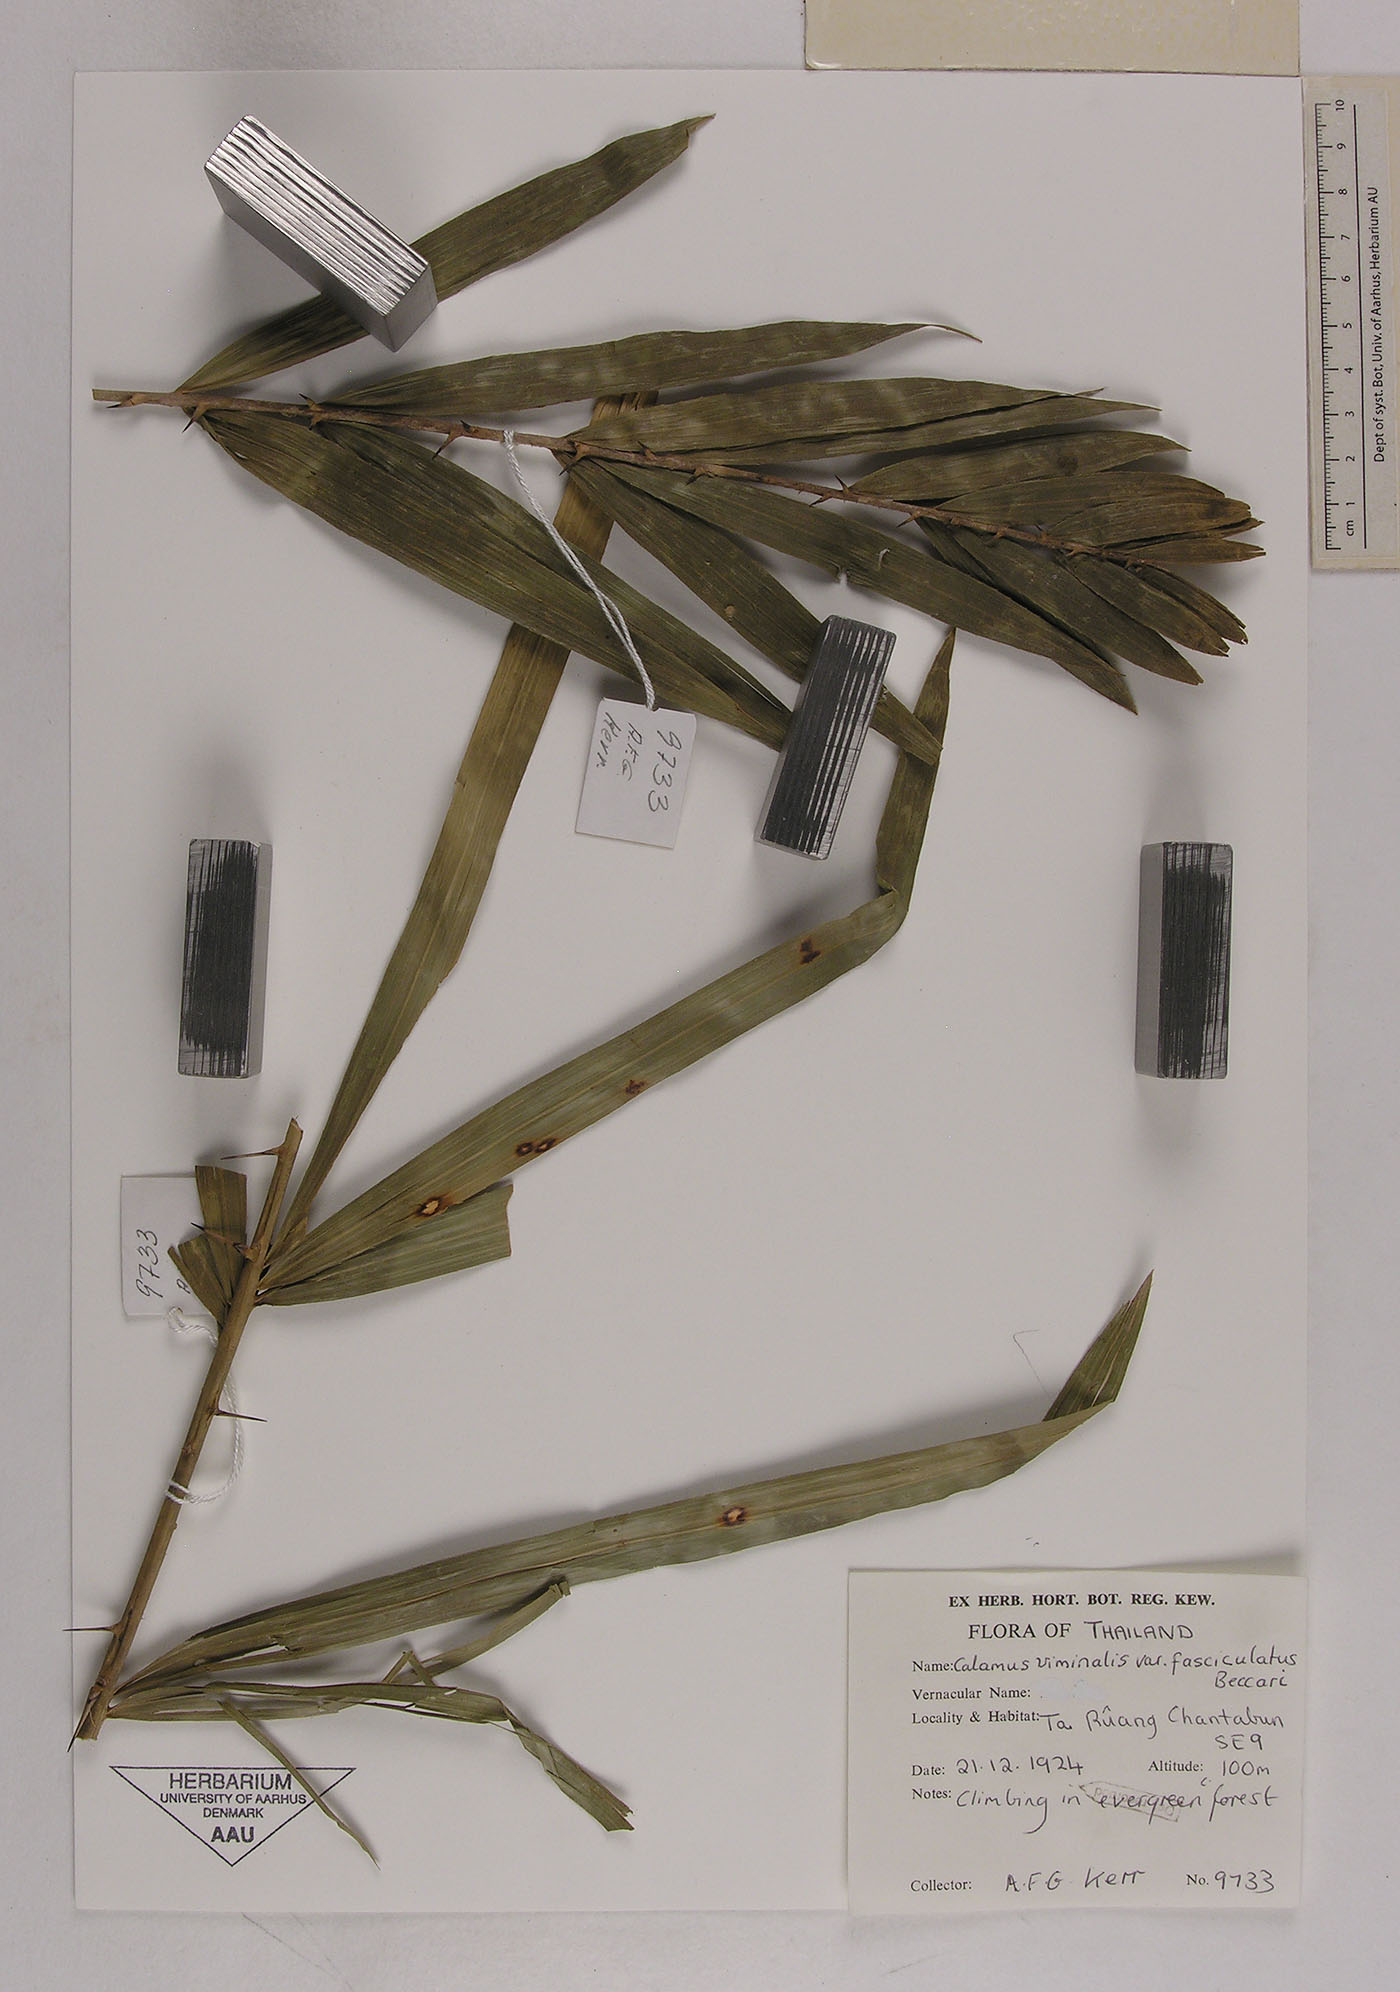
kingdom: Plantae
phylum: Tracheophyta
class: Liliopsida
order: Arecales
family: Arecaceae
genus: Calamus
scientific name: Calamus viminalis
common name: Osier-like rattan palm
